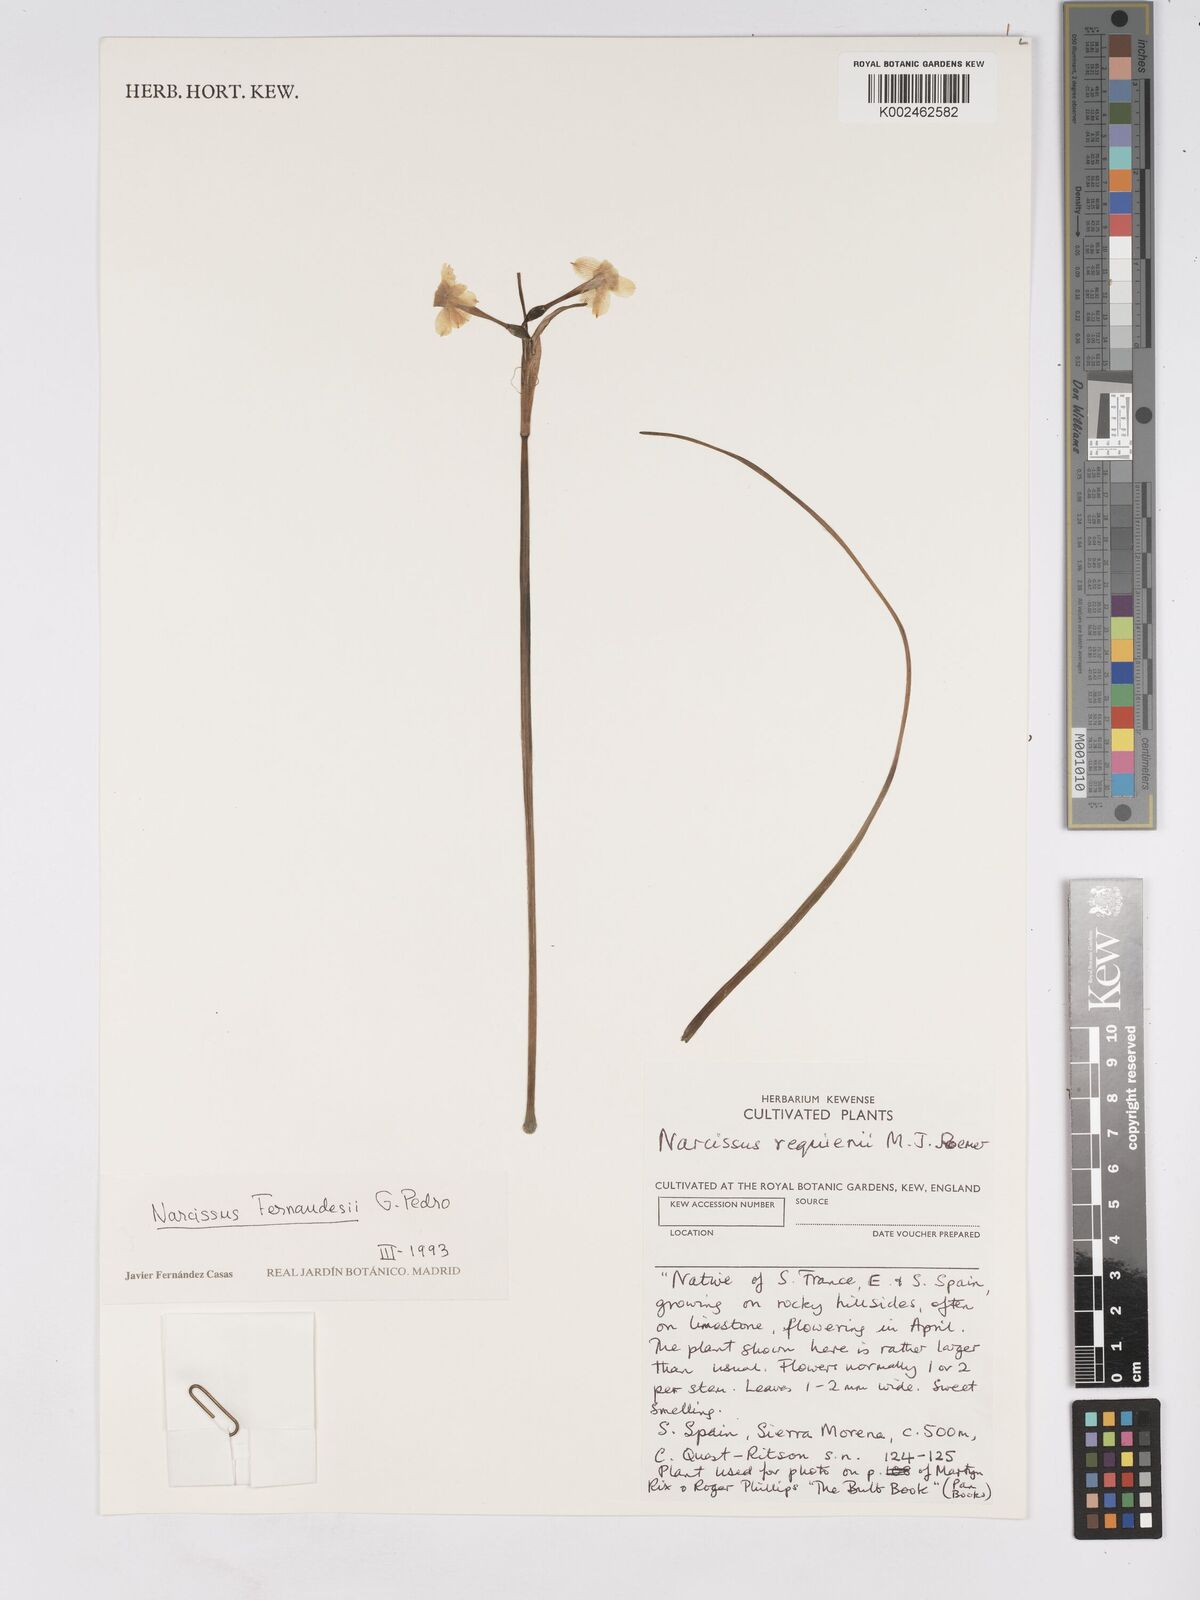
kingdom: Plantae
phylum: Tracheophyta
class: Liliopsida
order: Asparagales
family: Amaryllidaceae
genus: Narcissus
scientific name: Narcissus flavus
